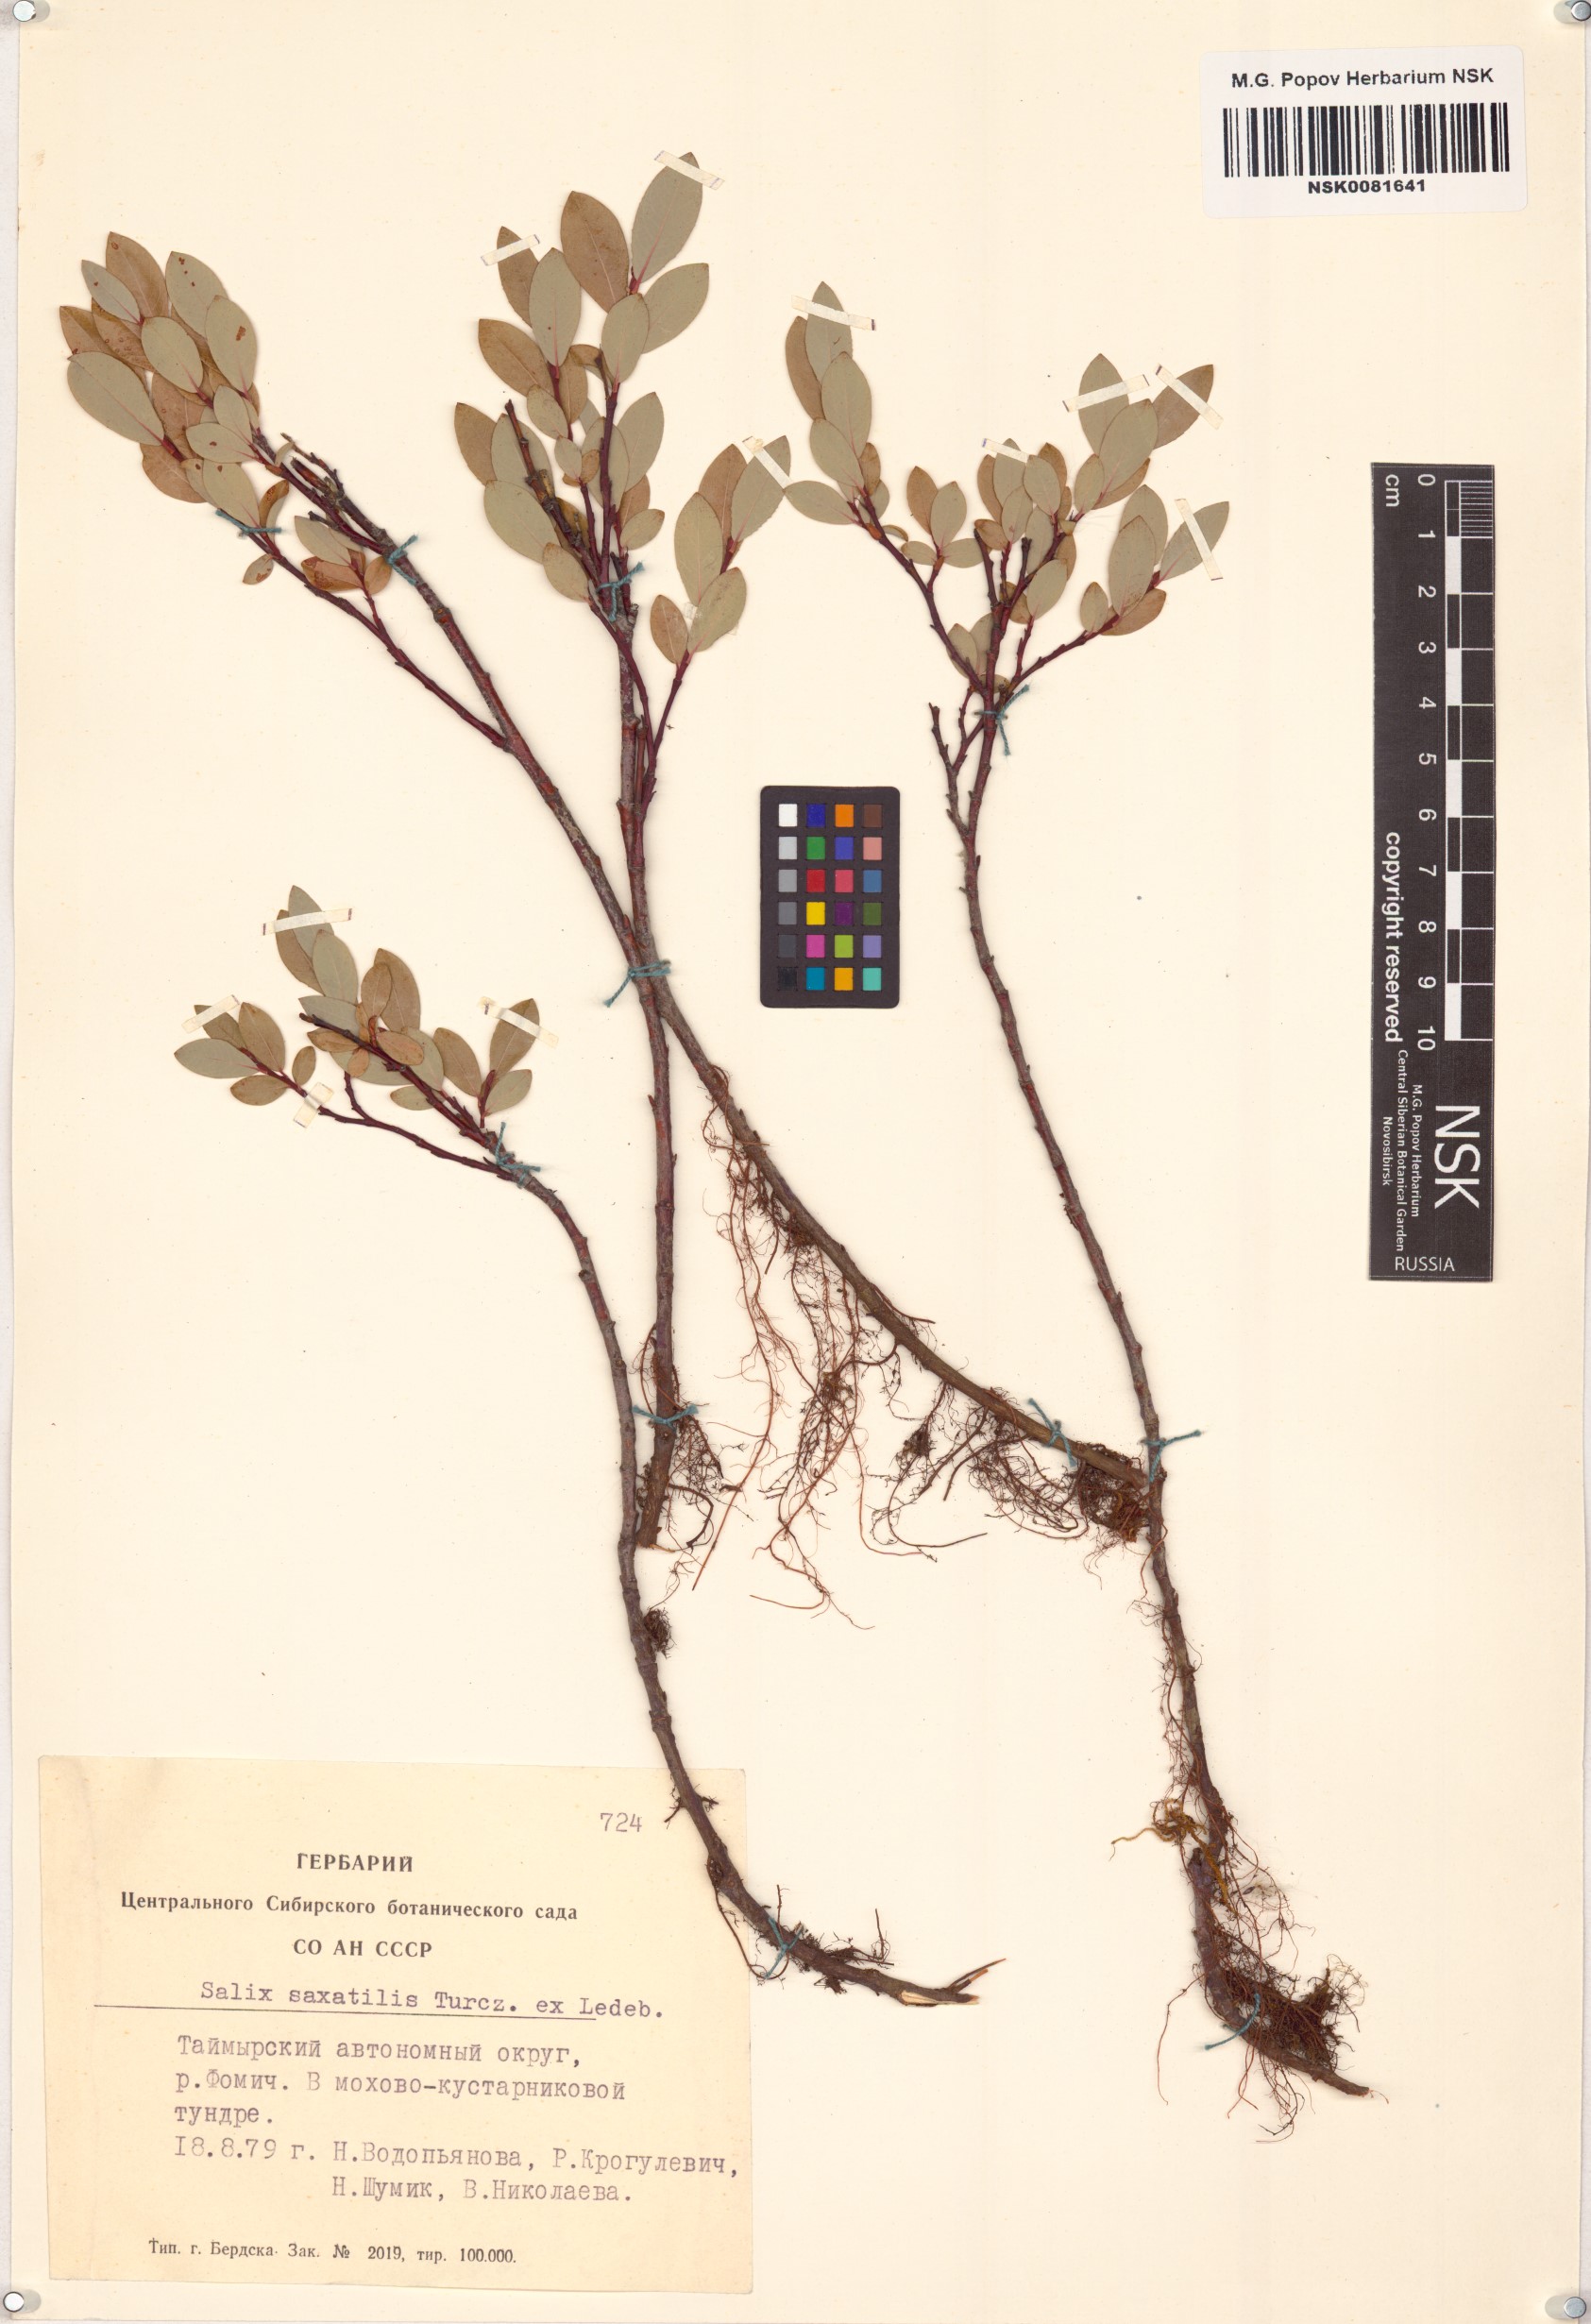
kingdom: Plantae
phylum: Tracheophyta
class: Magnoliopsida
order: Malpighiales
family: Salicaceae
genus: Salix
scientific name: Salix saxatilis
